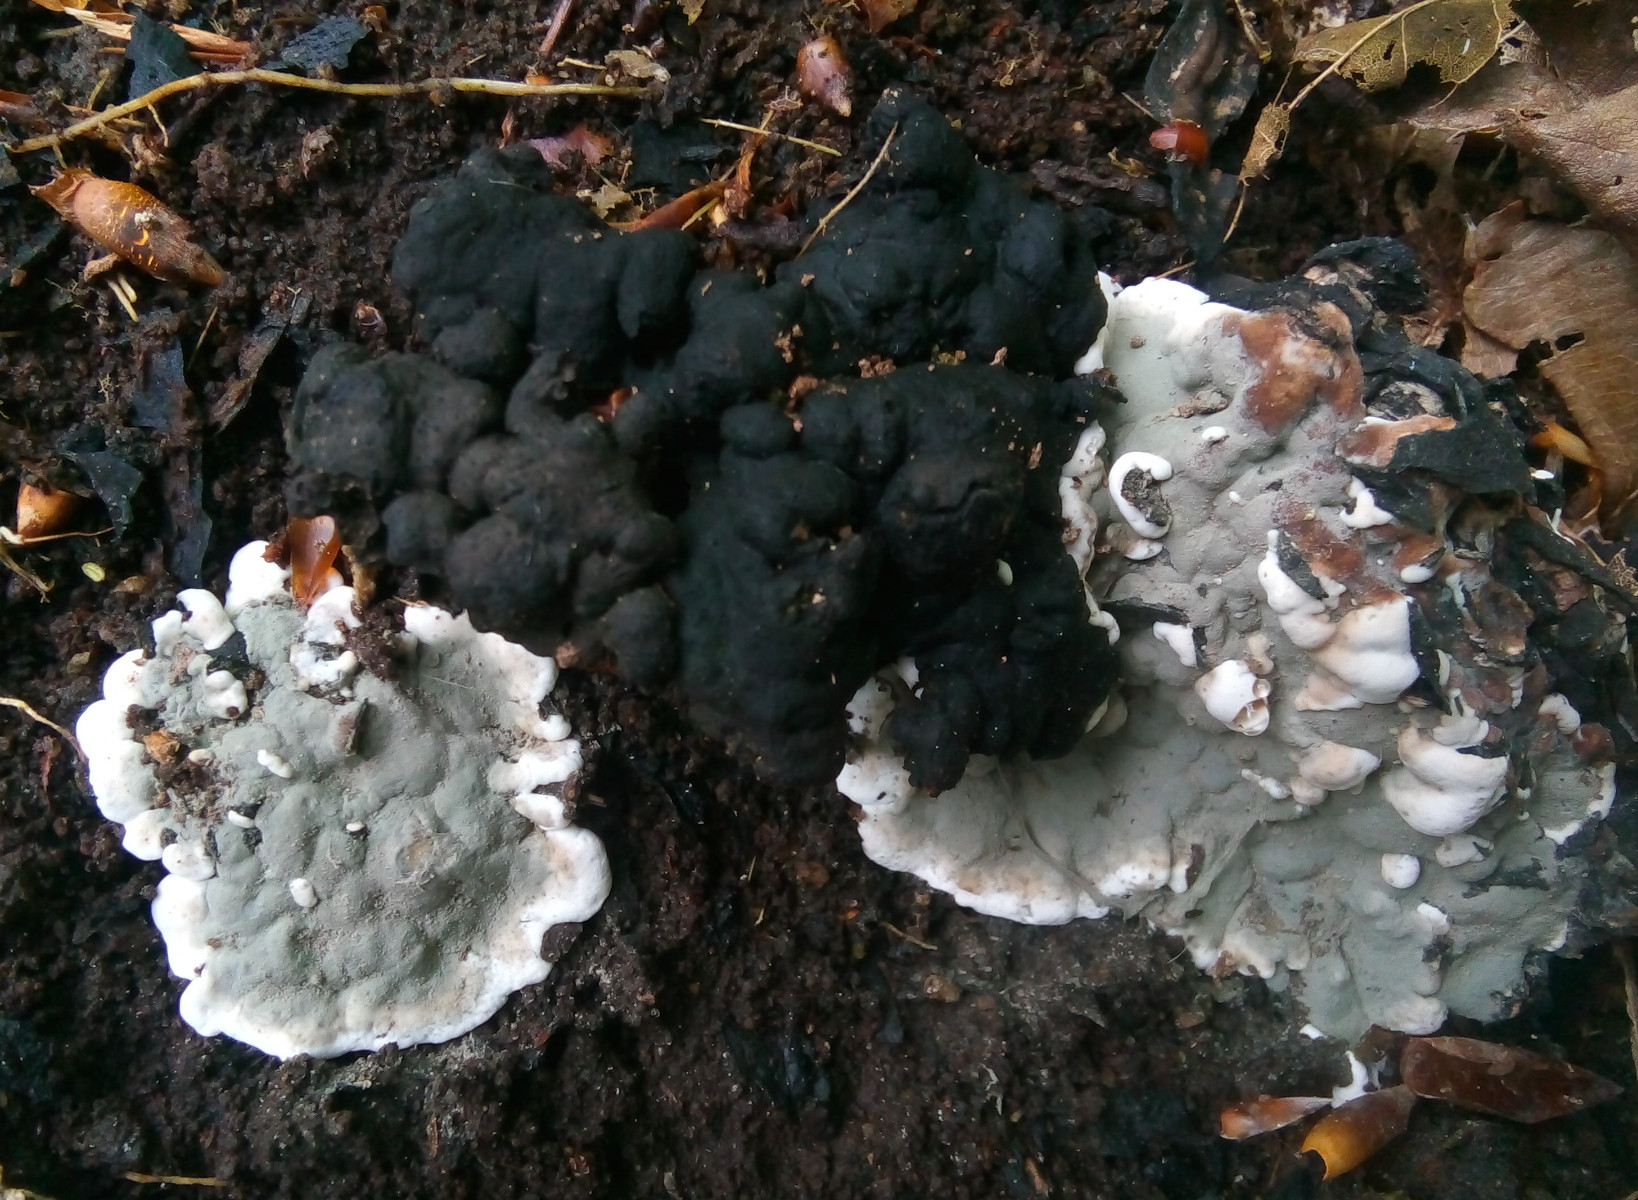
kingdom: Fungi
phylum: Ascomycota
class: Sordariomycetes
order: Xylariales
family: Xylariaceae
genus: Kretzschmaria
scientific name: Kretzschmaria deusta
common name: stor kulsvamp
